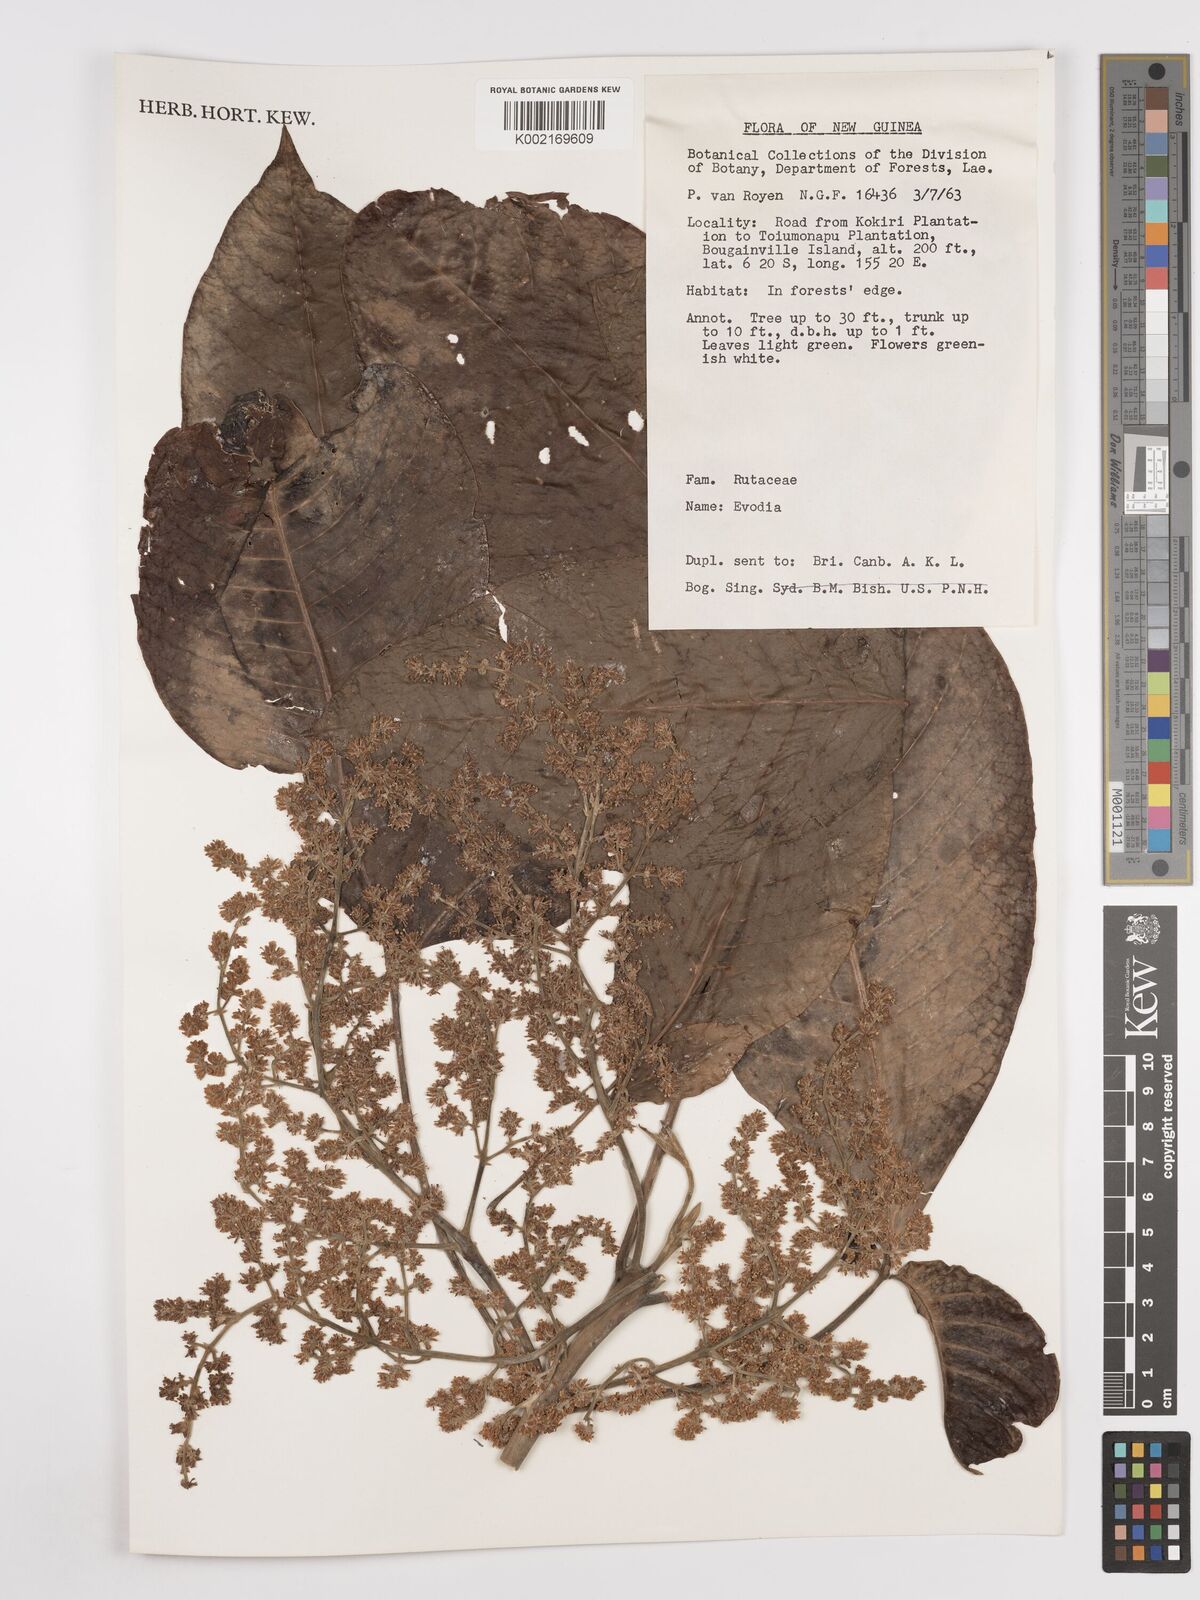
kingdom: Plantae
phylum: Tracheophyta
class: Magnoliopsida
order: Sapindales
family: Rutaceae
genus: Euodia
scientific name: Euodia
